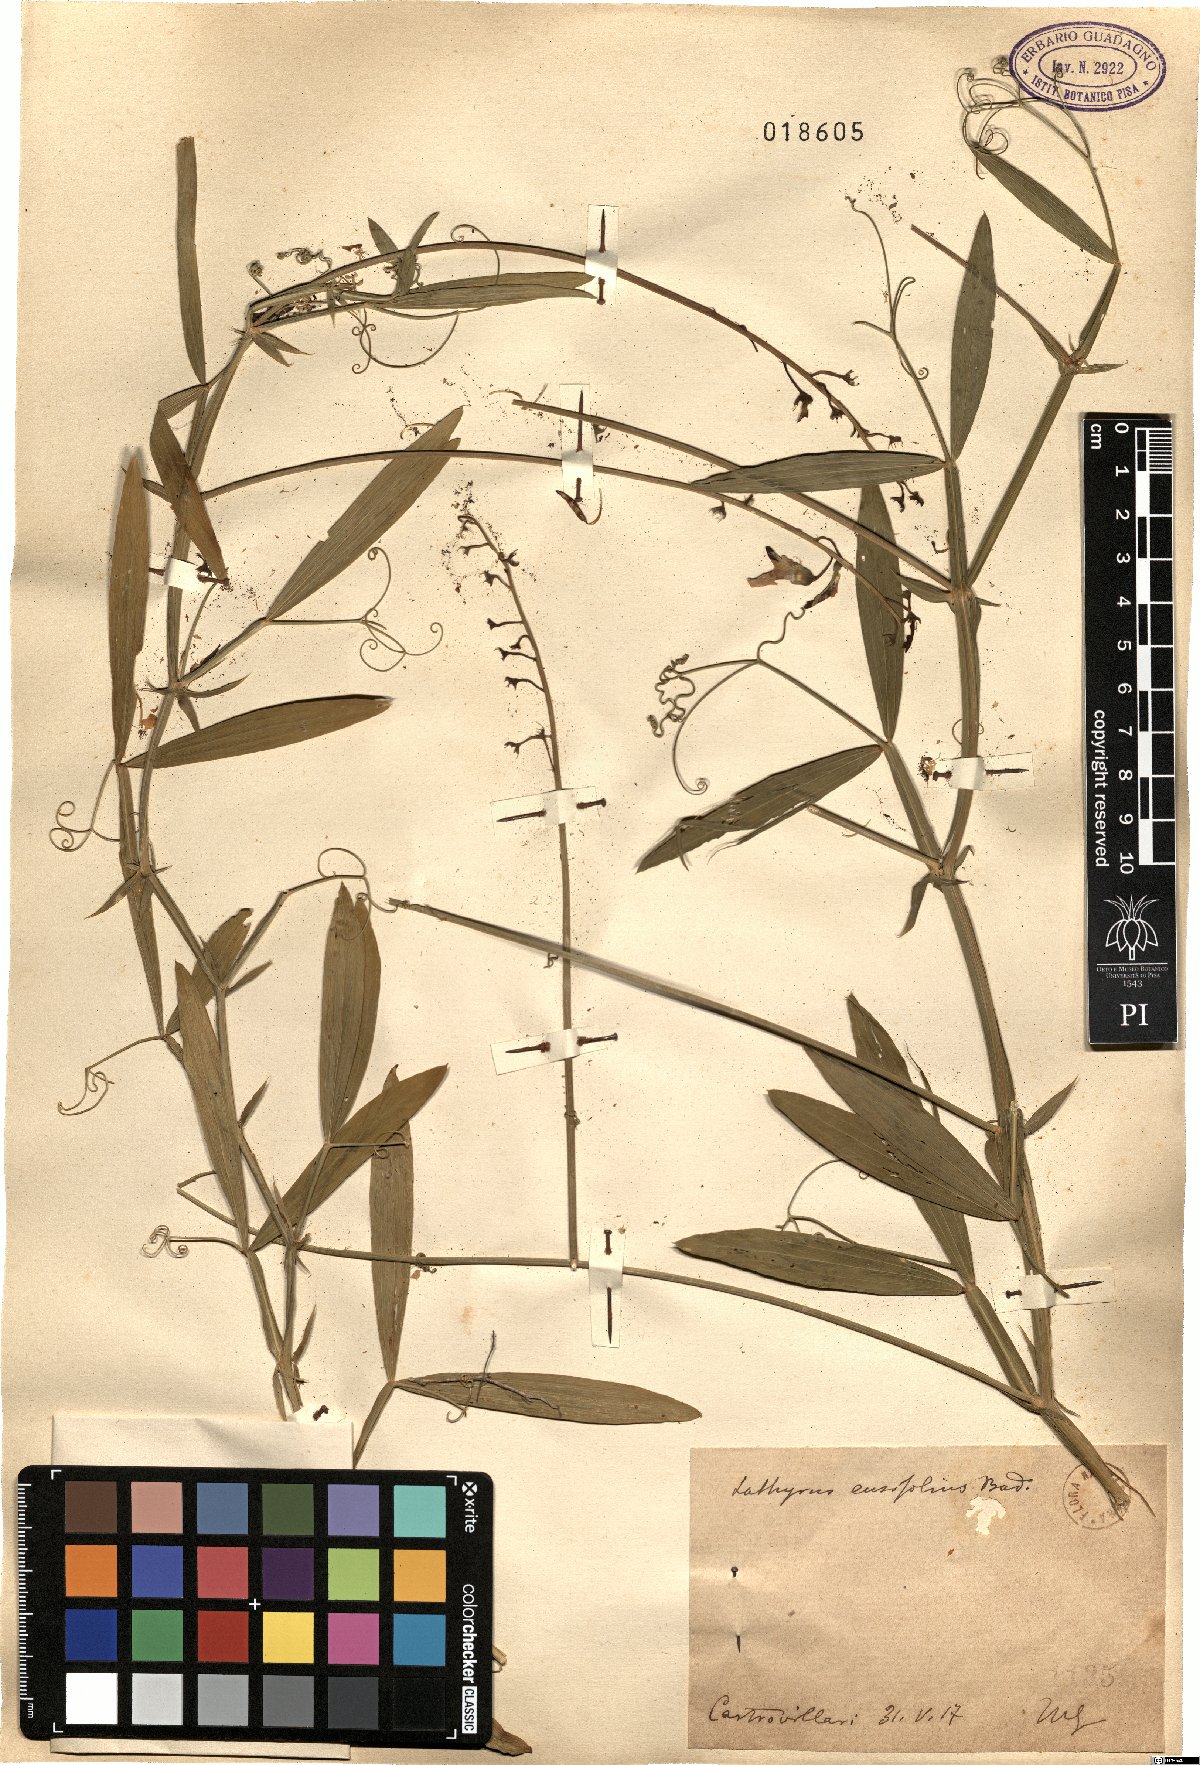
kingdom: Plantae
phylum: Tracheophyta
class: Magnoliopsida
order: Fabales
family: Fabaceae
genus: Lathyrus
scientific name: Lathyrus bauhini
